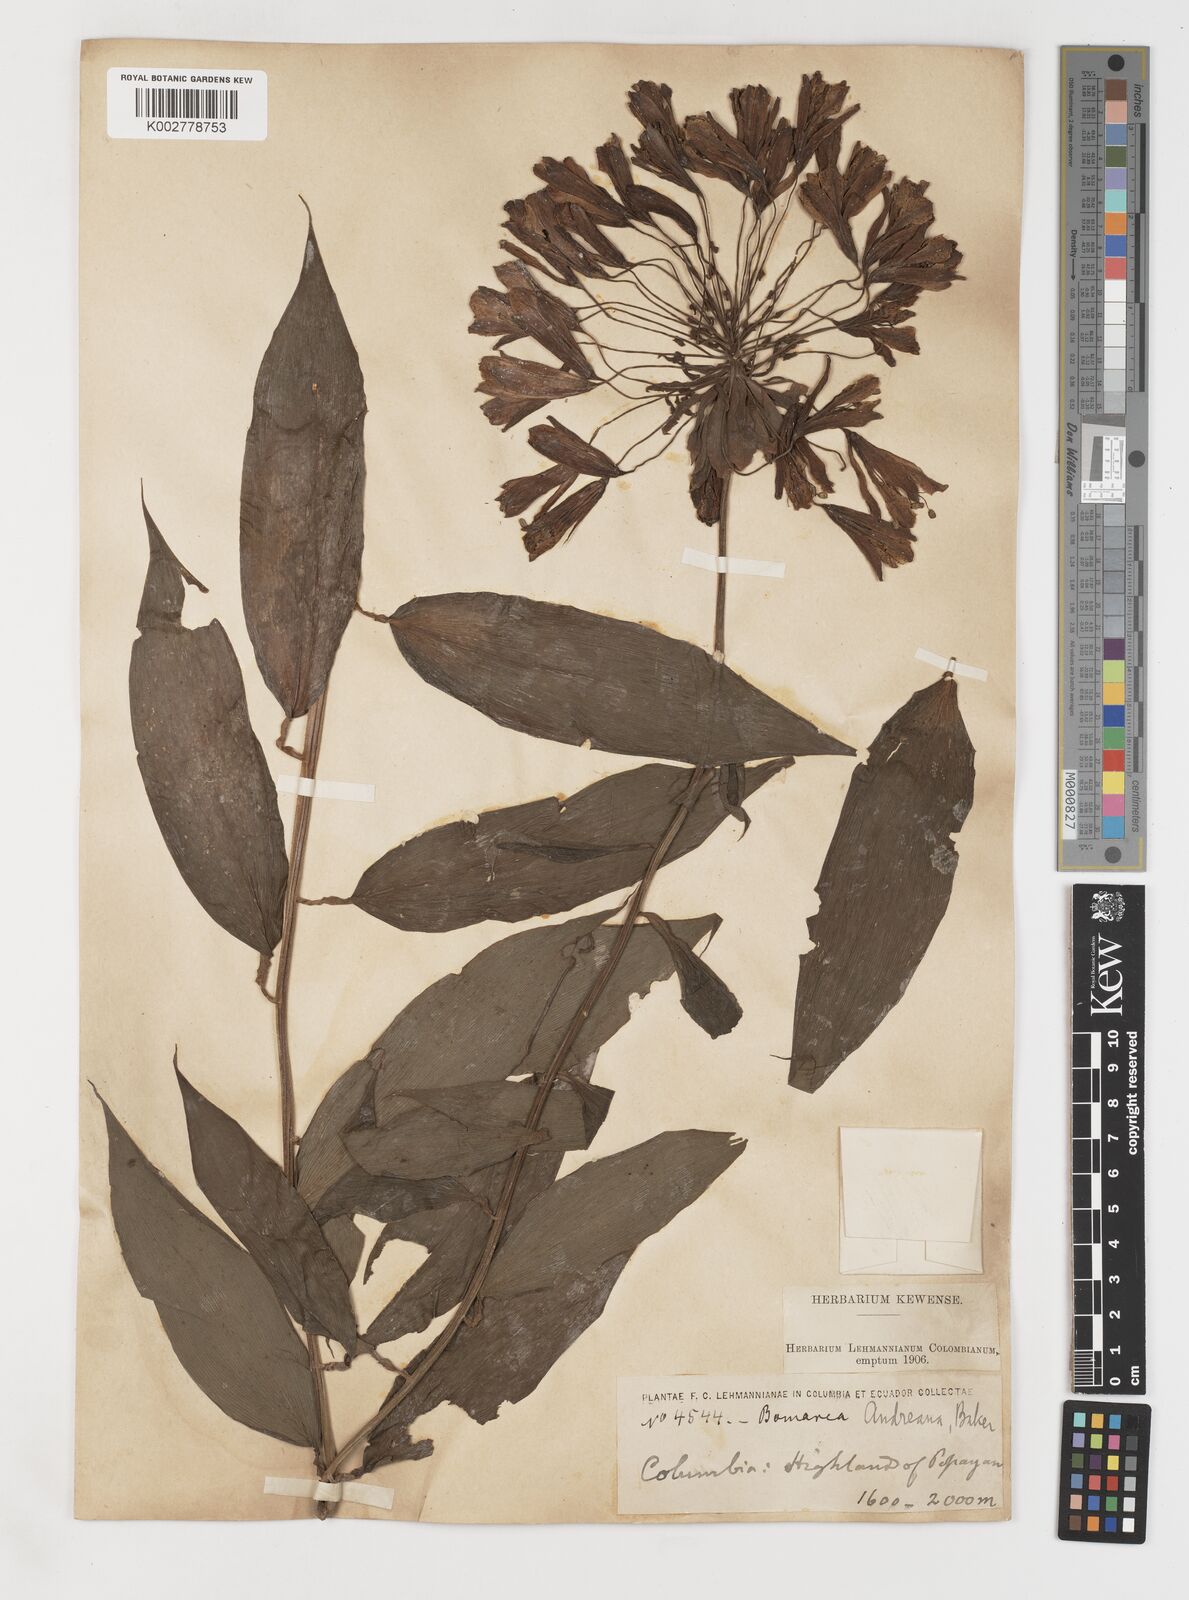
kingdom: Plantae
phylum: Tracheophyta
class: Liliopsida
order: Liliales
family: Alstroemeriaceae
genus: Bomarea
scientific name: Bomarea andreana
